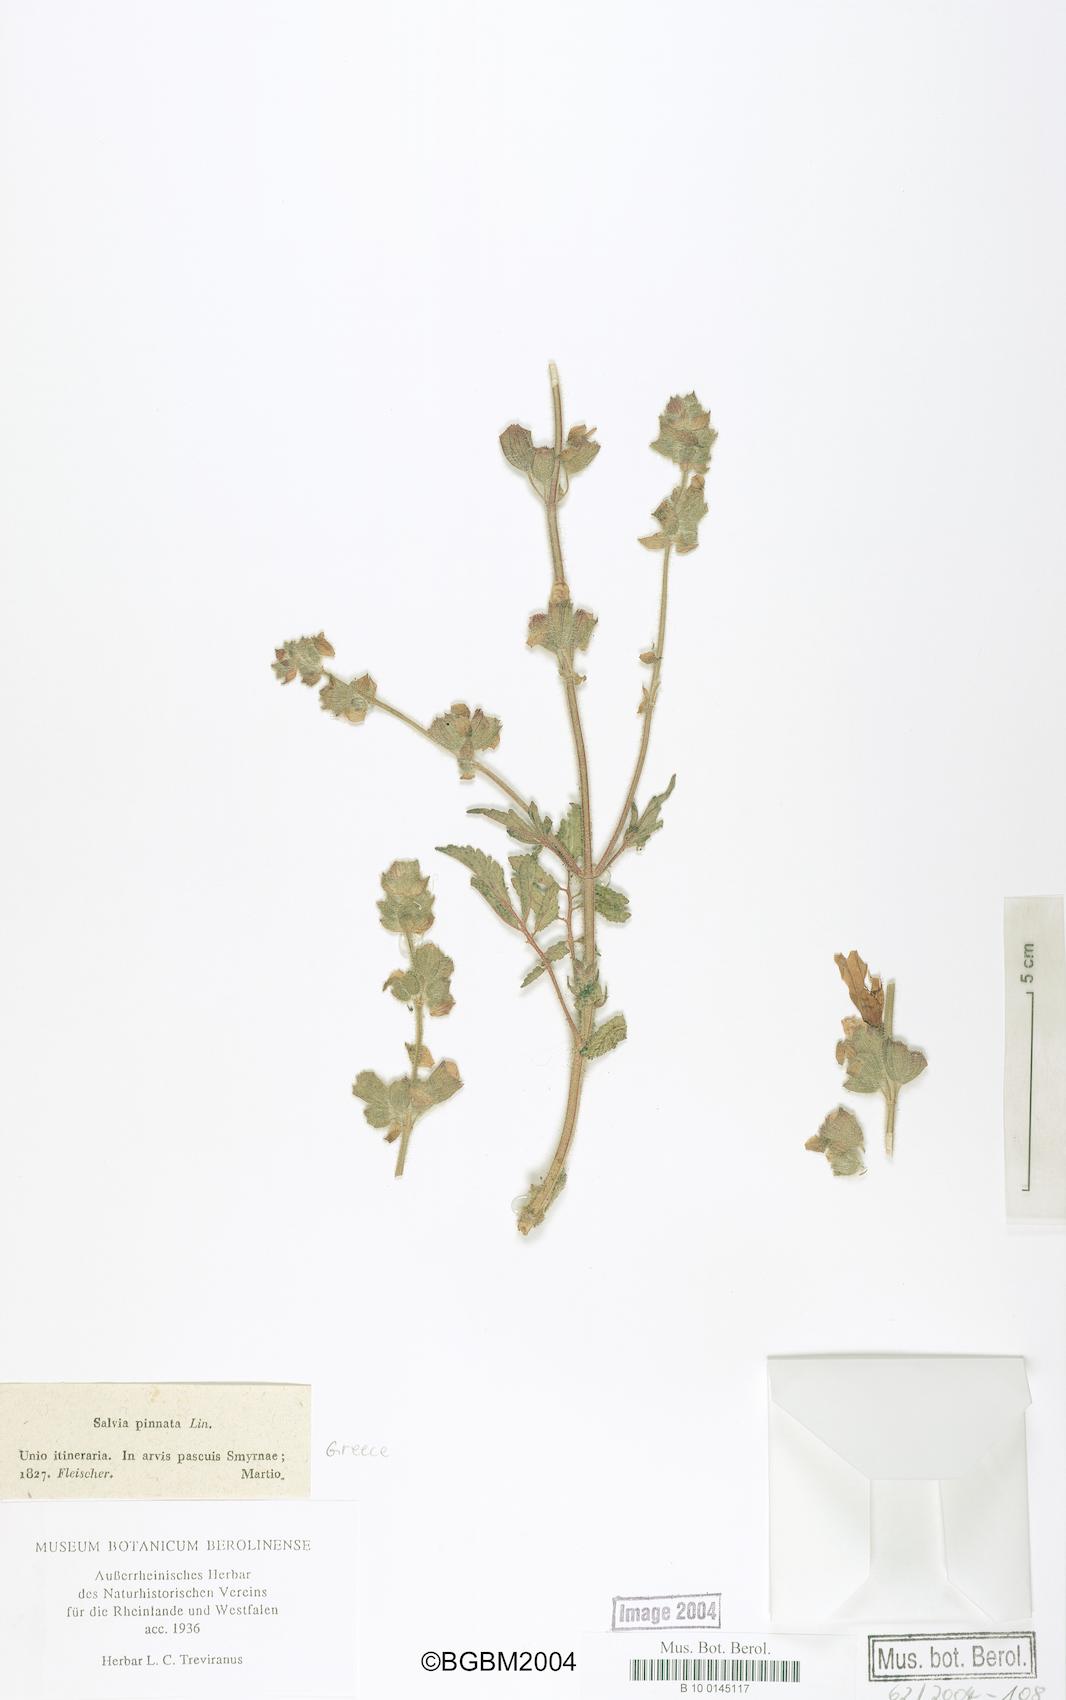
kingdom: Plantae
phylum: Tracheophyta
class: Magnoliopsida
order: Lamiales
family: Lamiaceae
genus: Salvia
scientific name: Salvia pinnata
